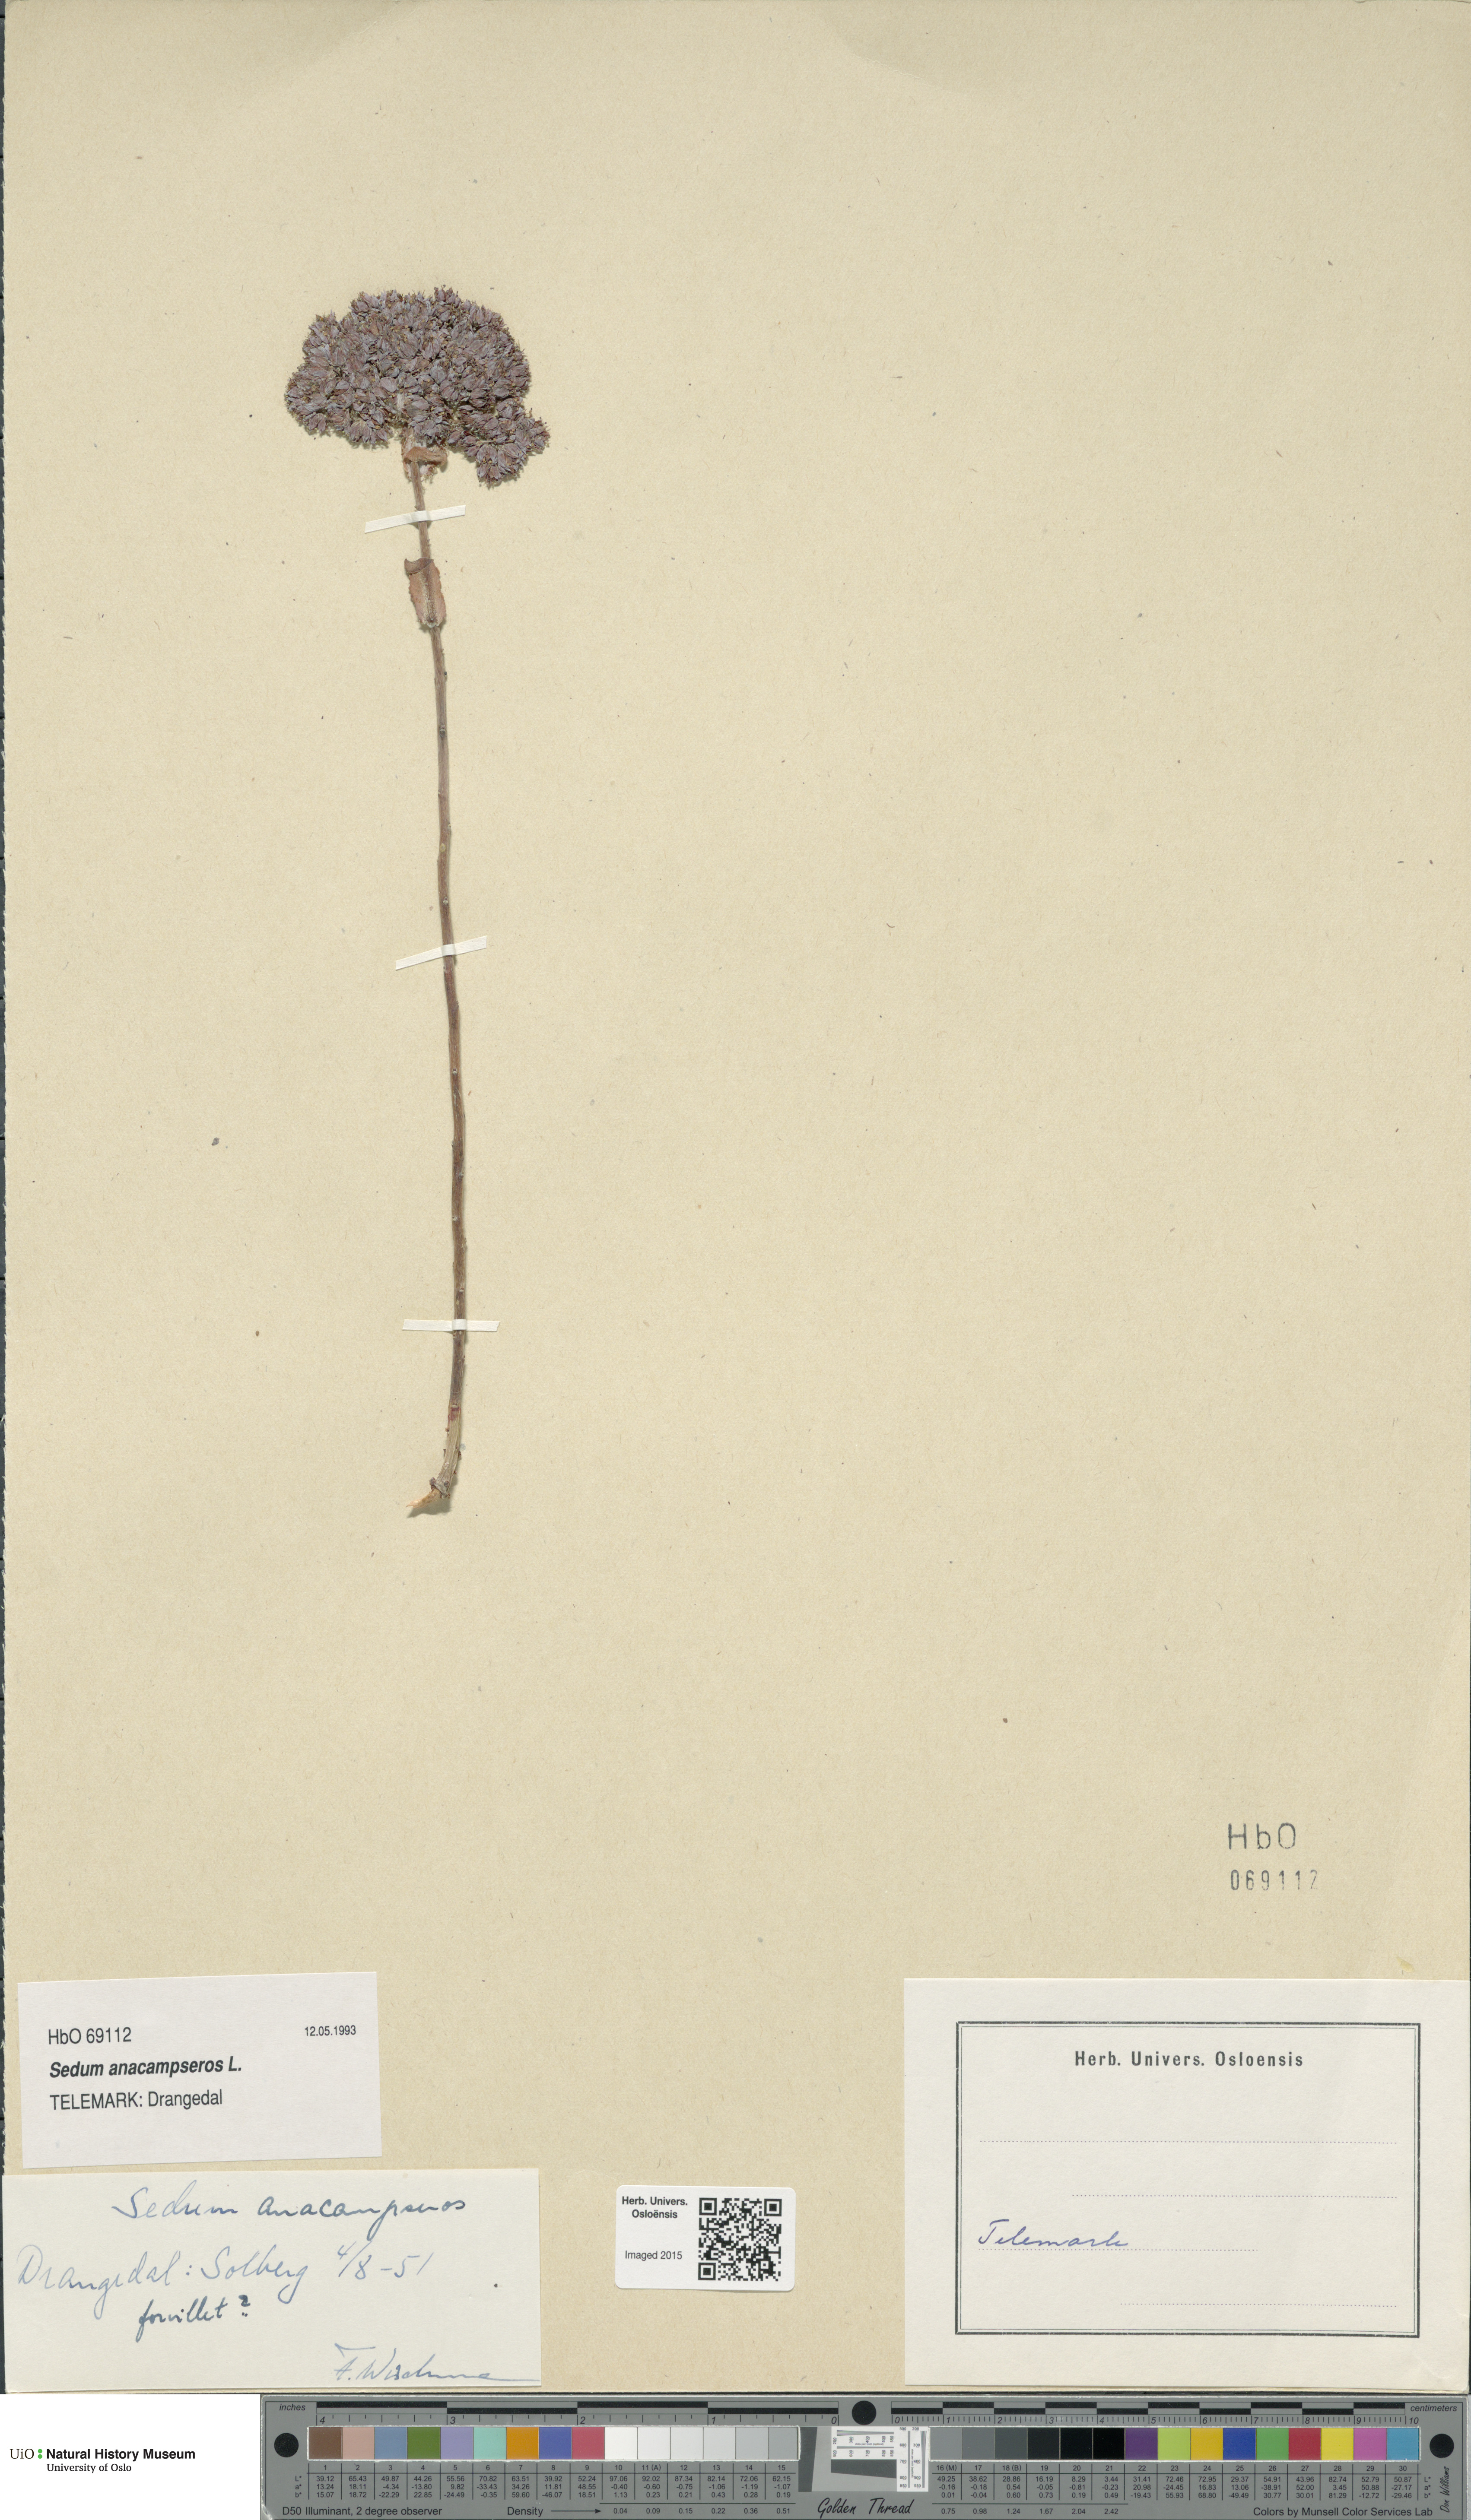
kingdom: Plantae
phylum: Tracheophyta
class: Magnoliopsida
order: Saxifragales
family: Crassulaceae
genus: Hylotelephium
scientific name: Hylotelephium anacampseros
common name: Love-restorer
